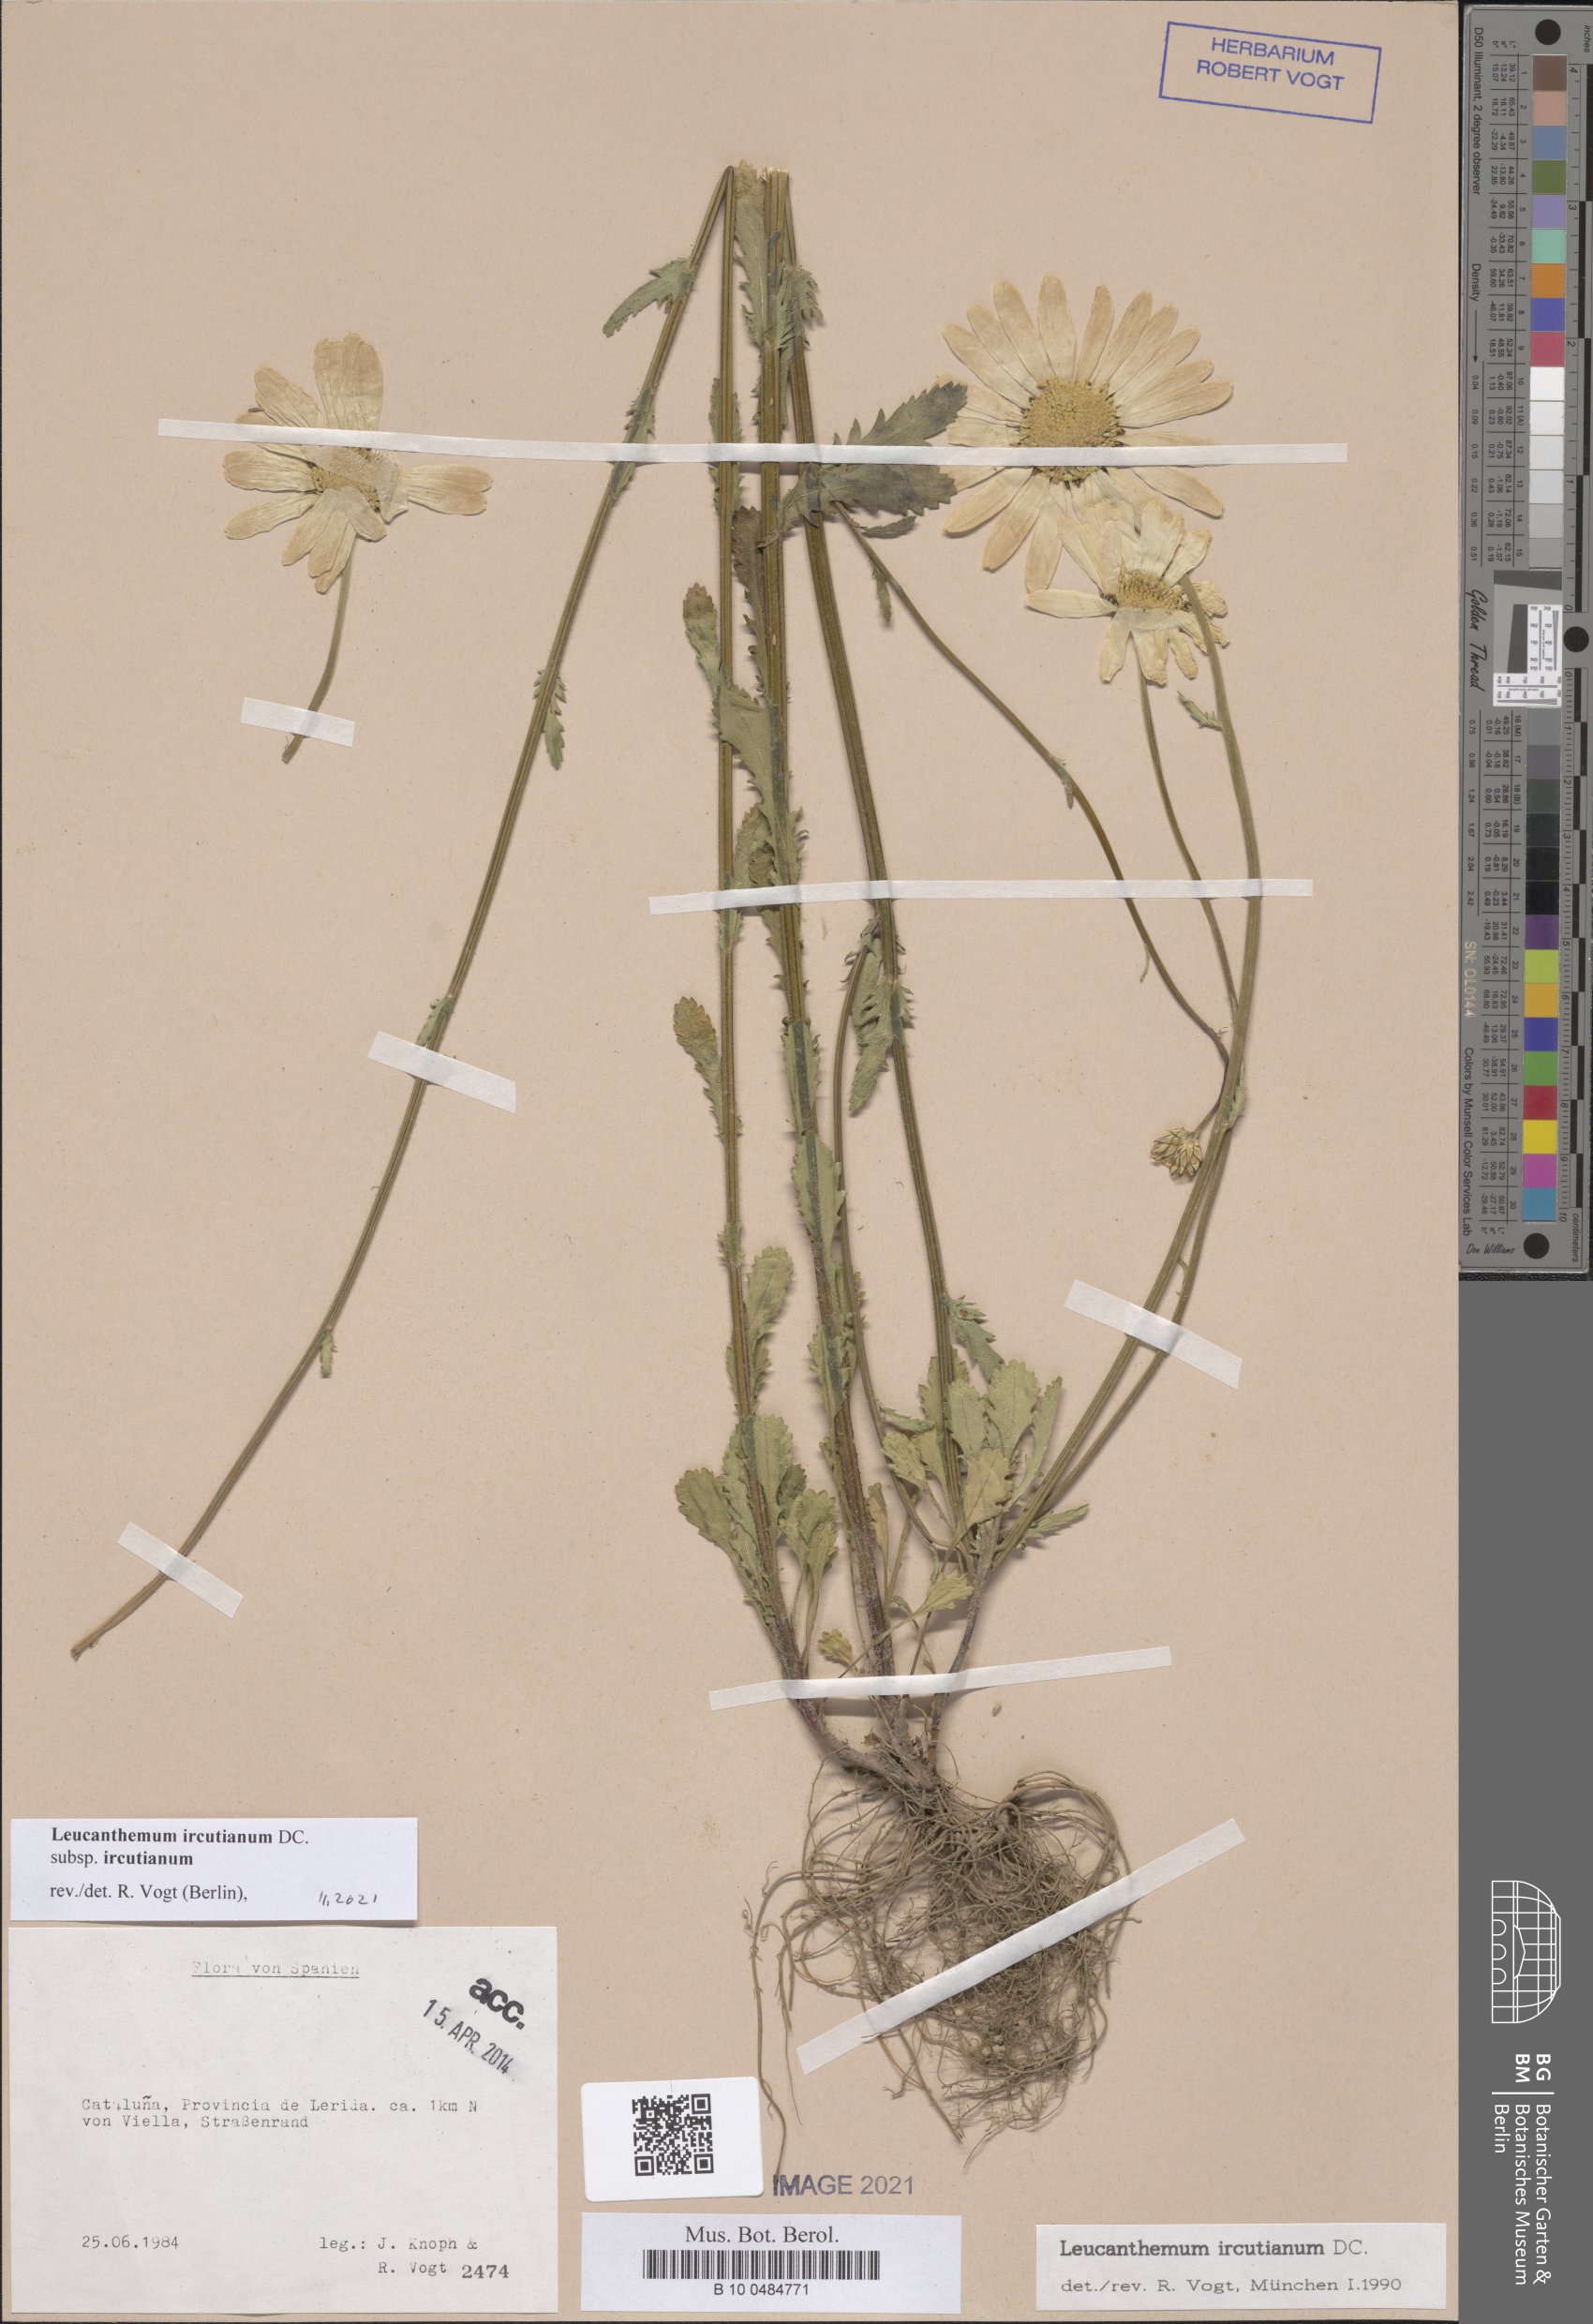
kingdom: Plantae
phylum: Tracheophyta
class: Magnoliopsida
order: Asterales
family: Asteraceae
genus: Leucanthemum
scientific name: Leucanthemum ircutianum
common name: Daisy
